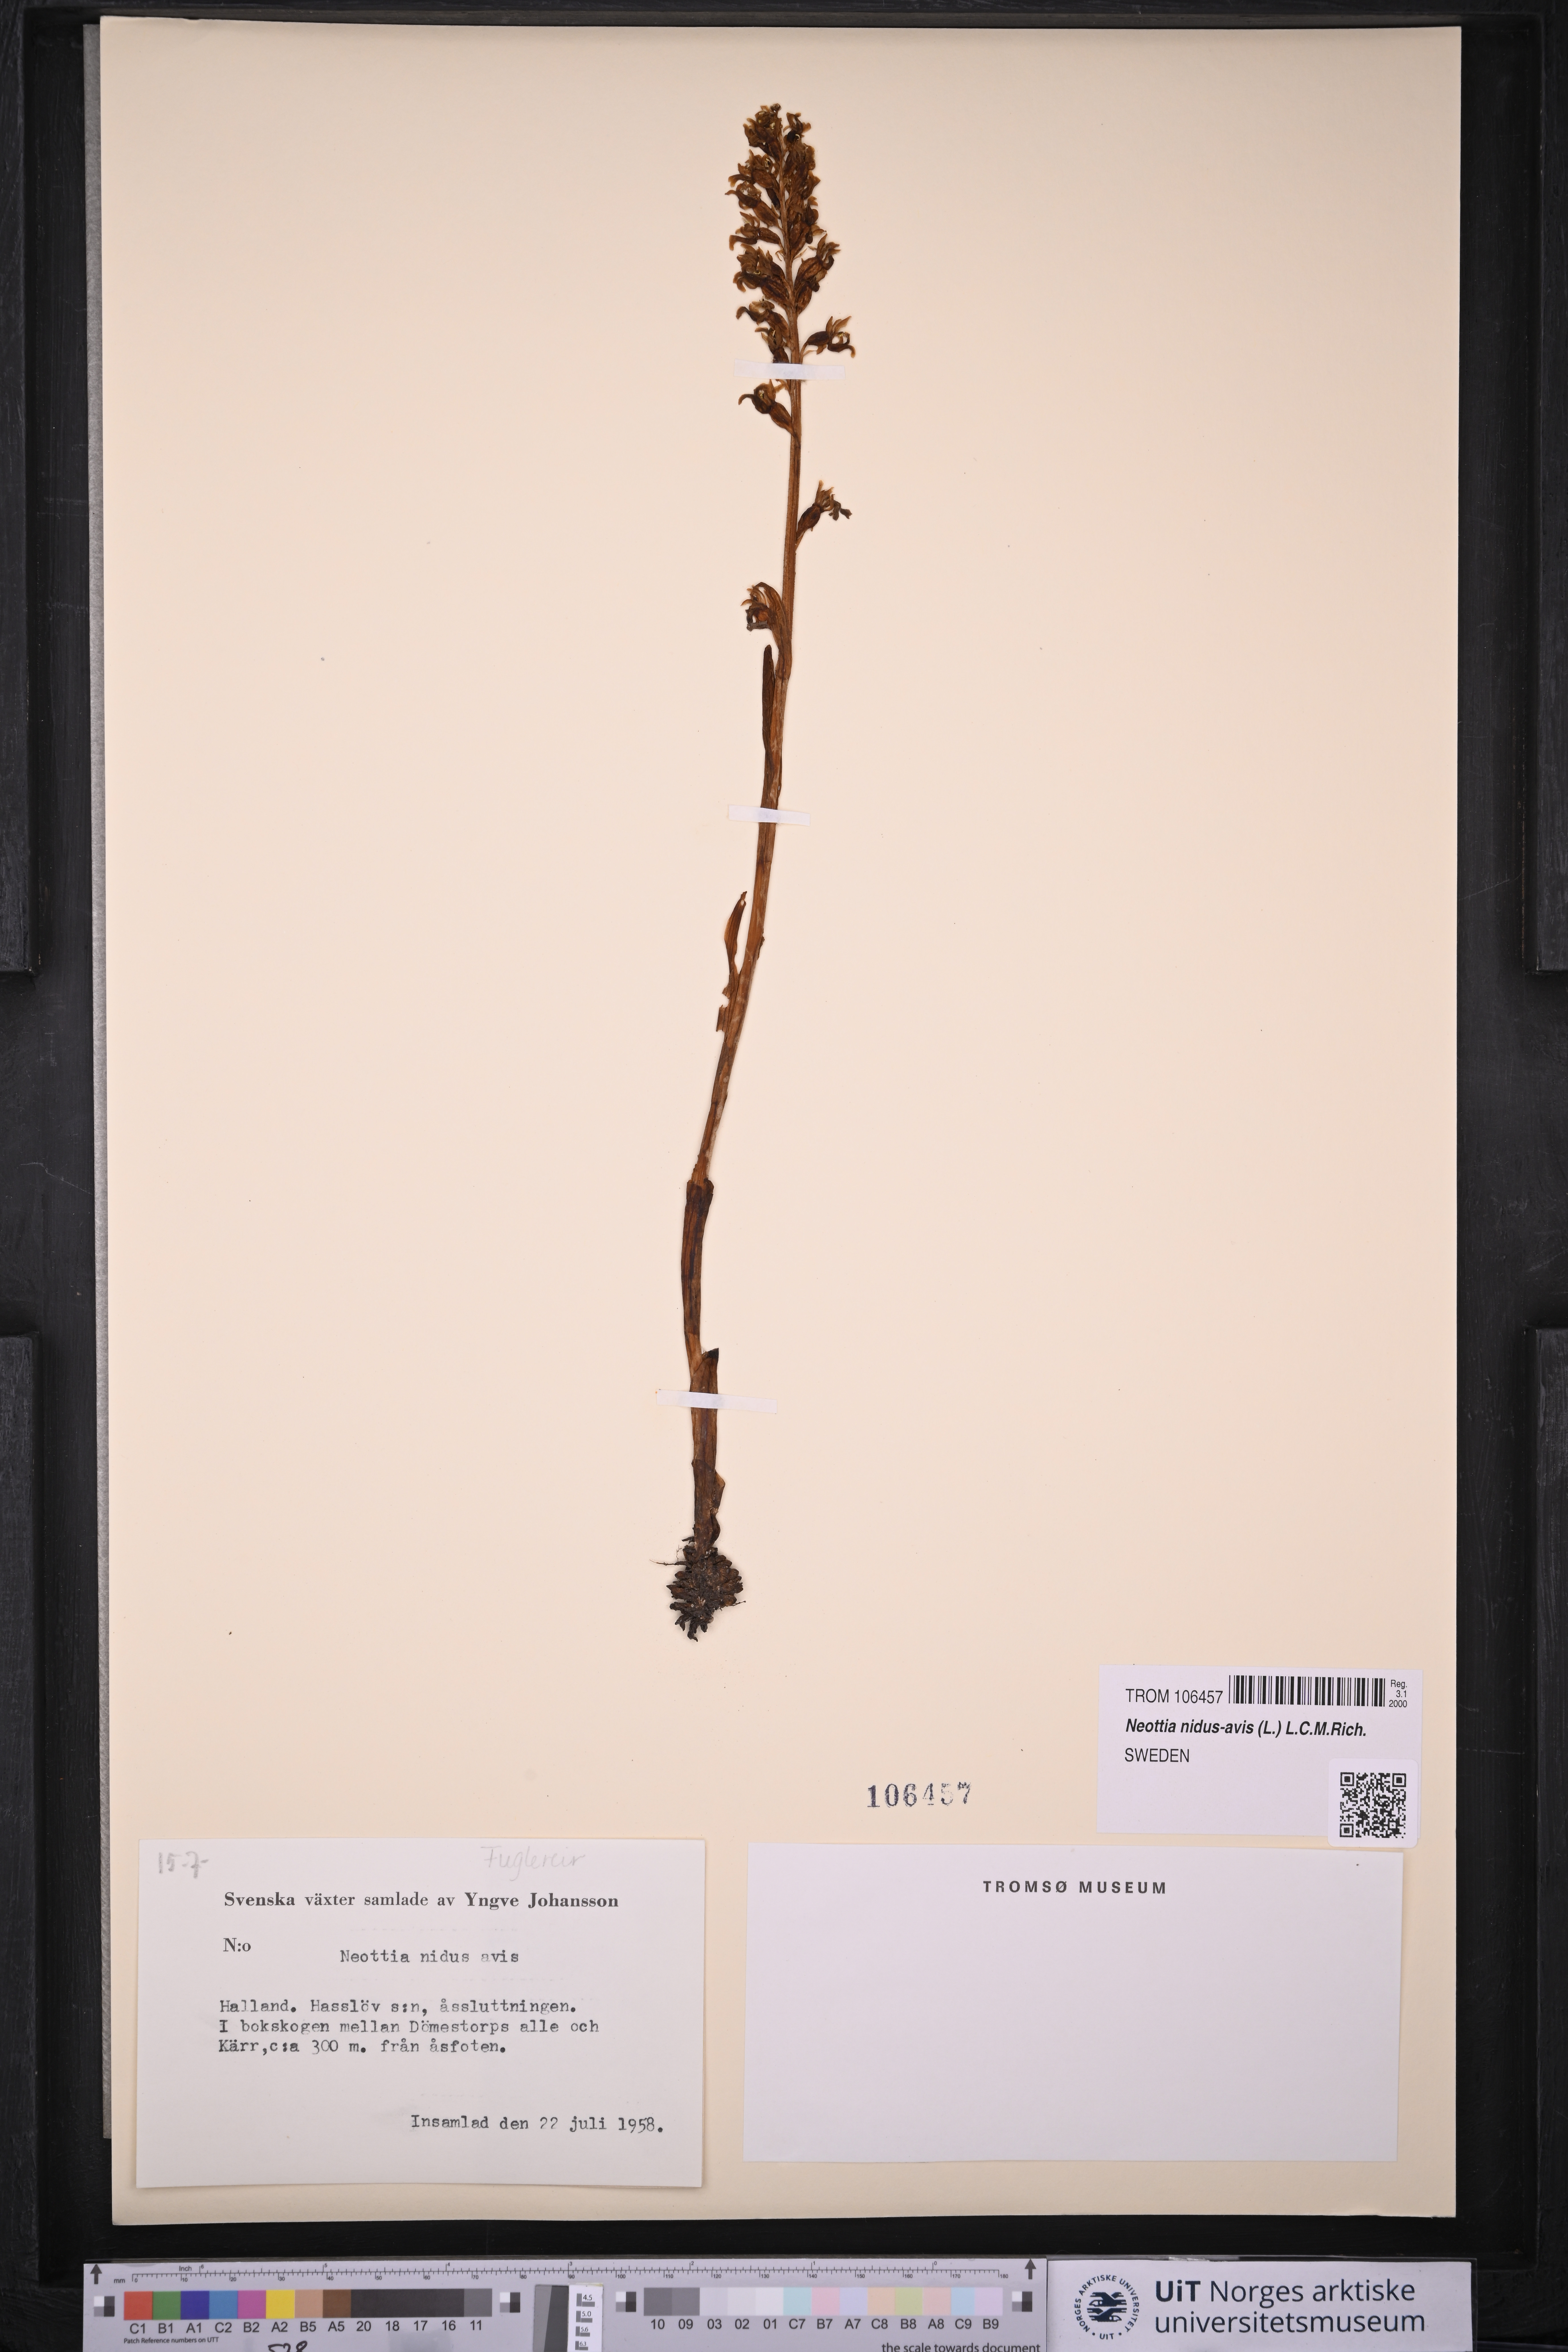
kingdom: Plantae
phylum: Tracheophyta
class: Liliopsida
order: Asparagales
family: Orchidaceae
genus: Neottia
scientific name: Neottia nidus-avis
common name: Bird's-nest orchid
